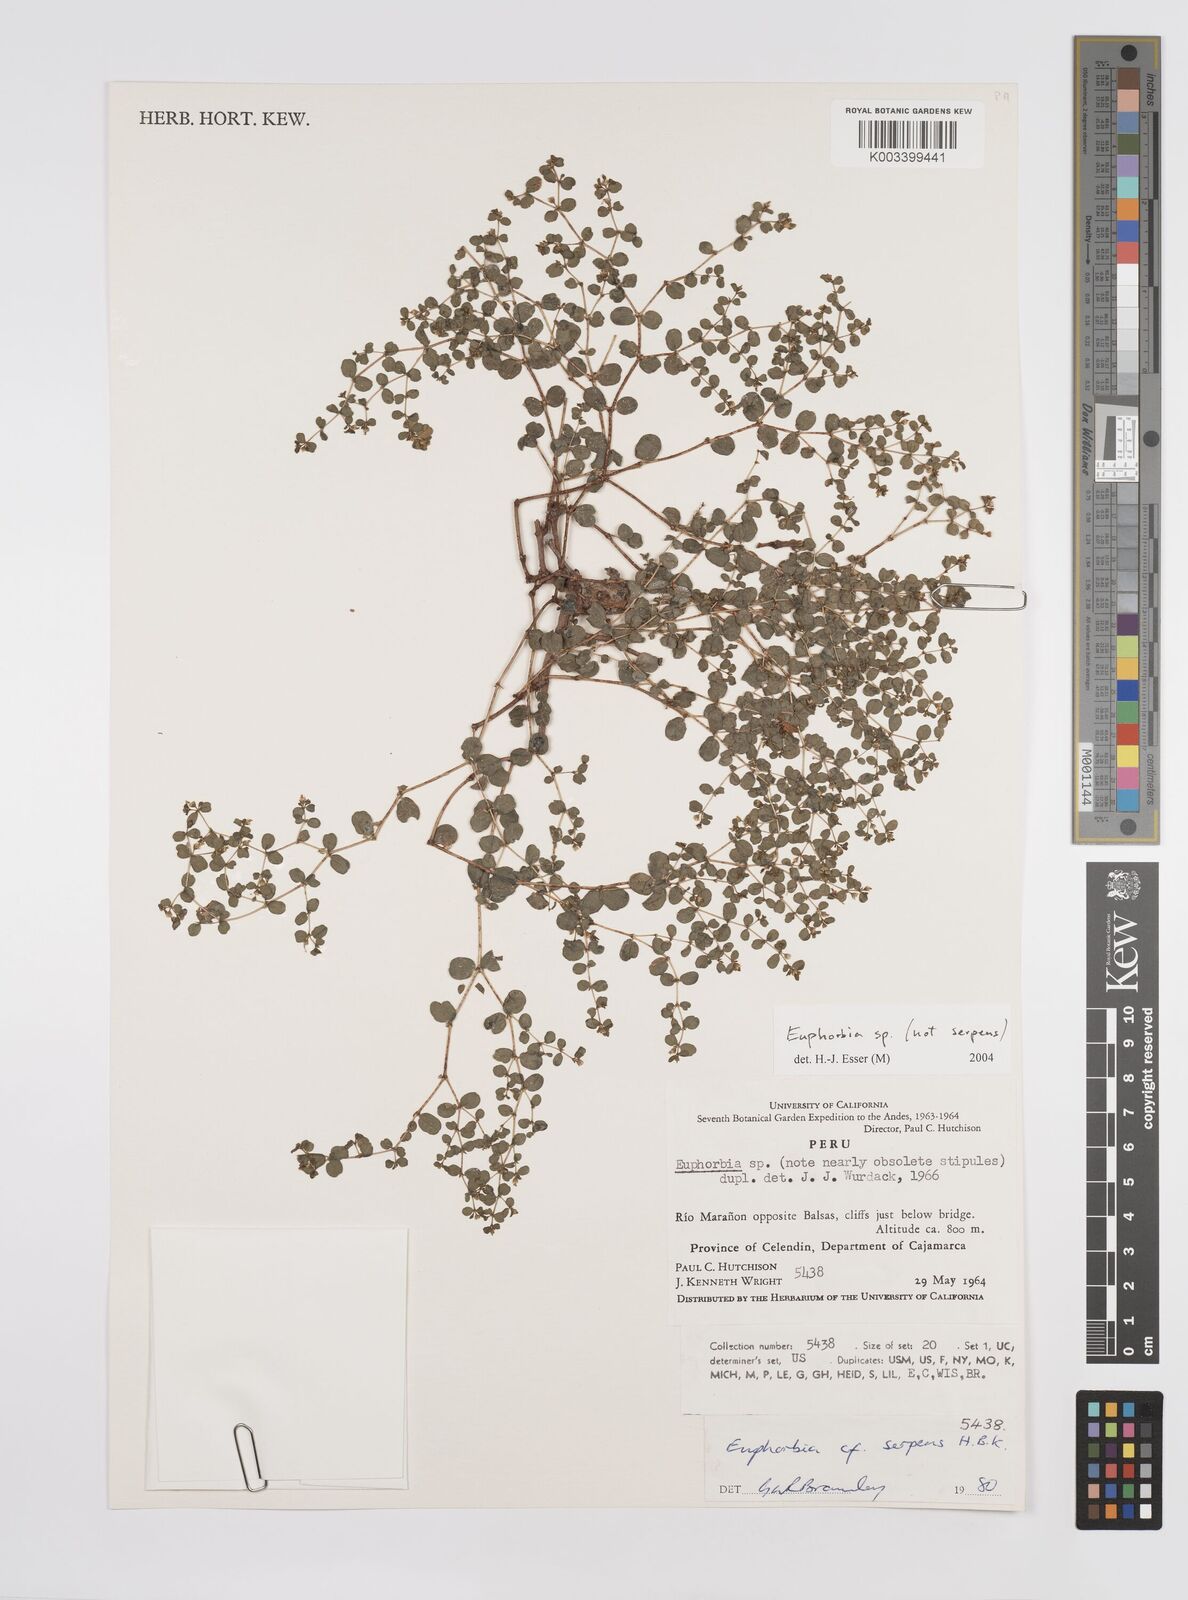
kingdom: Plantae
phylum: Tracheophyta
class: Magnoliopsida
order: Malpighiales
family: Euphorbiaceae
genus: Euphorbia
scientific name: Euphorbia
